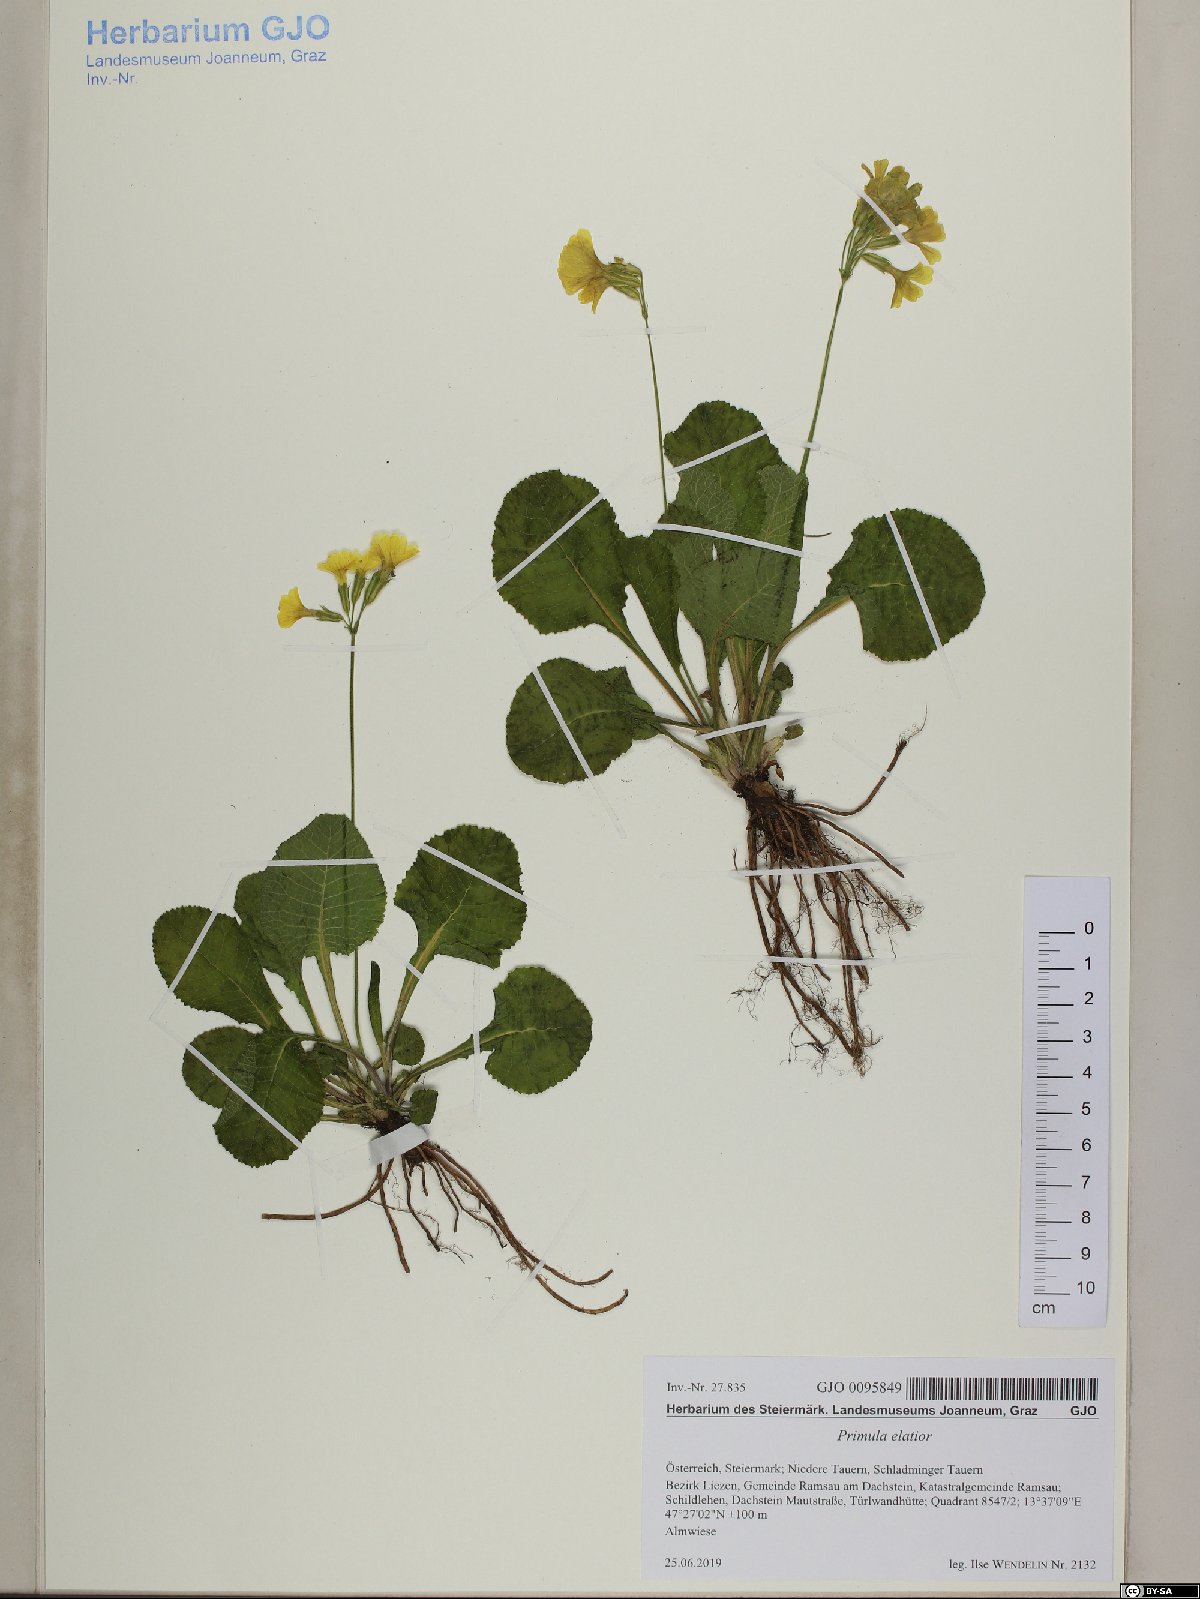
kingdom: Plantae
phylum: Tracheophyta
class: Magnoliopsida
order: Ericales
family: Primulaceae
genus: Primula
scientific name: Primula elatior
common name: Oxlip
